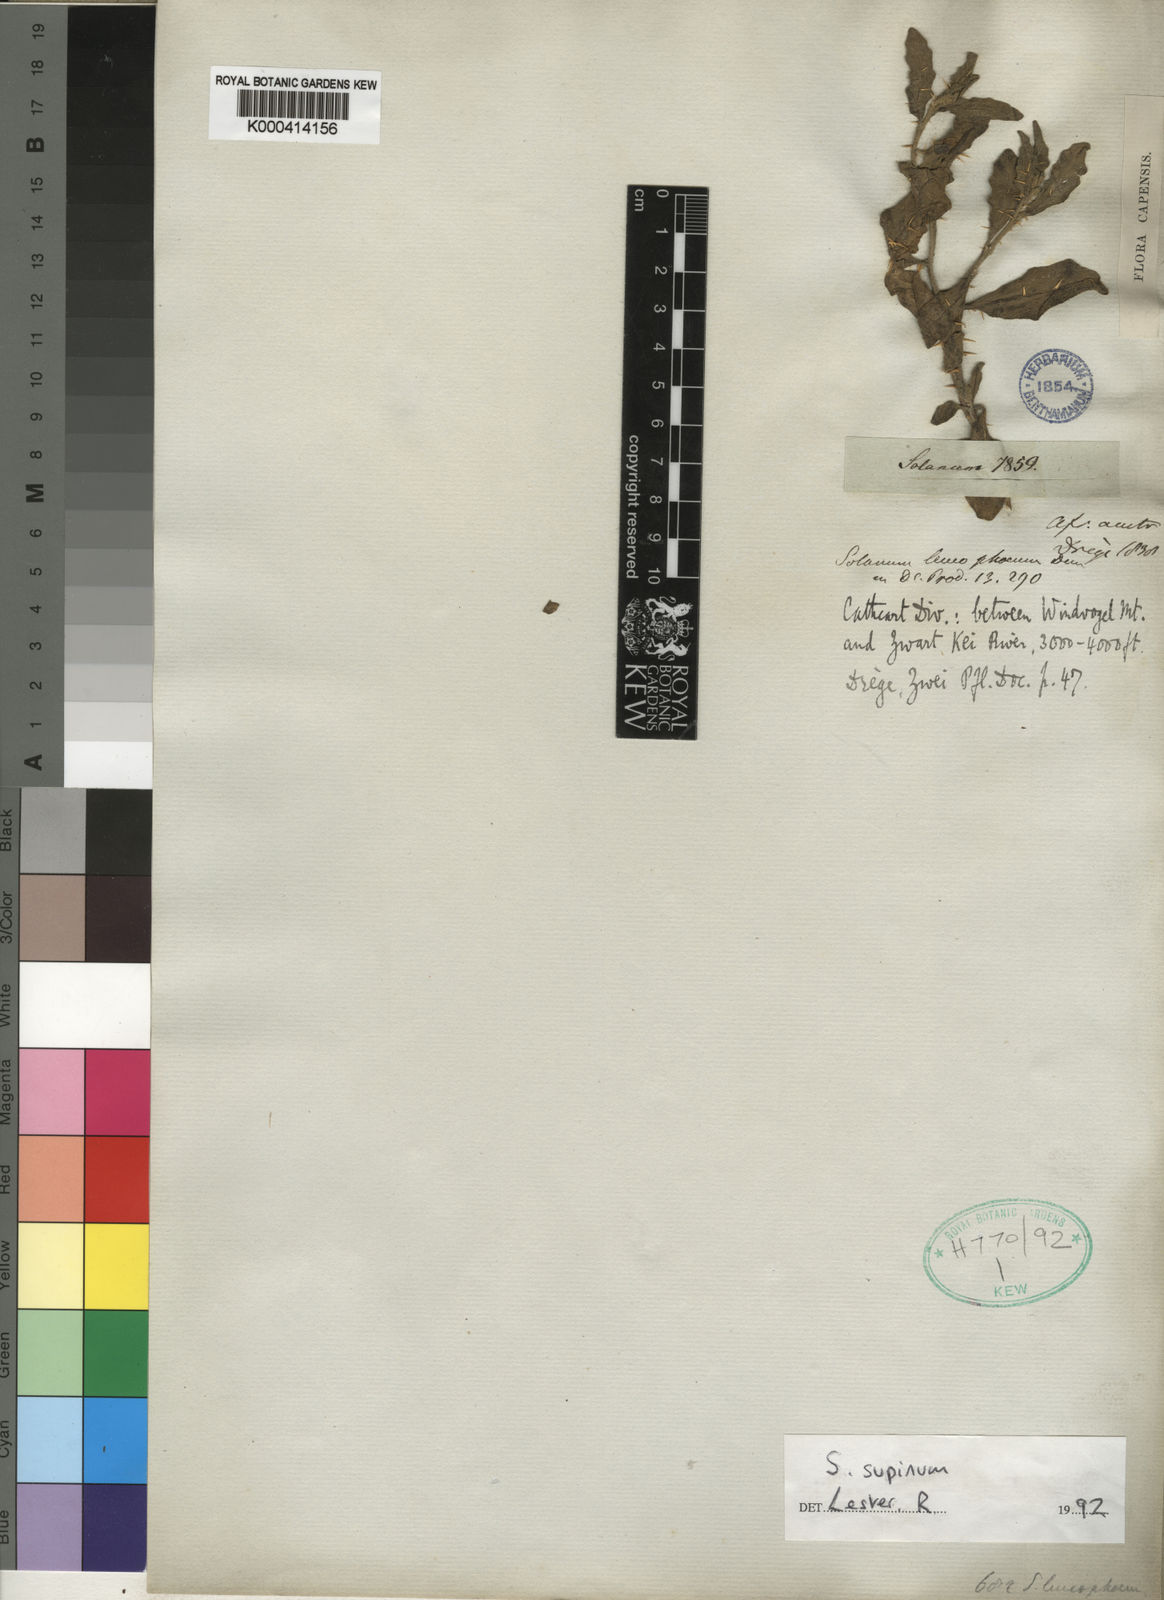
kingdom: Plantae
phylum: Tracheophyta
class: Magnoliopsida
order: Solanales
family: Solanaceae
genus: Solanum
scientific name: Solanum supinum
